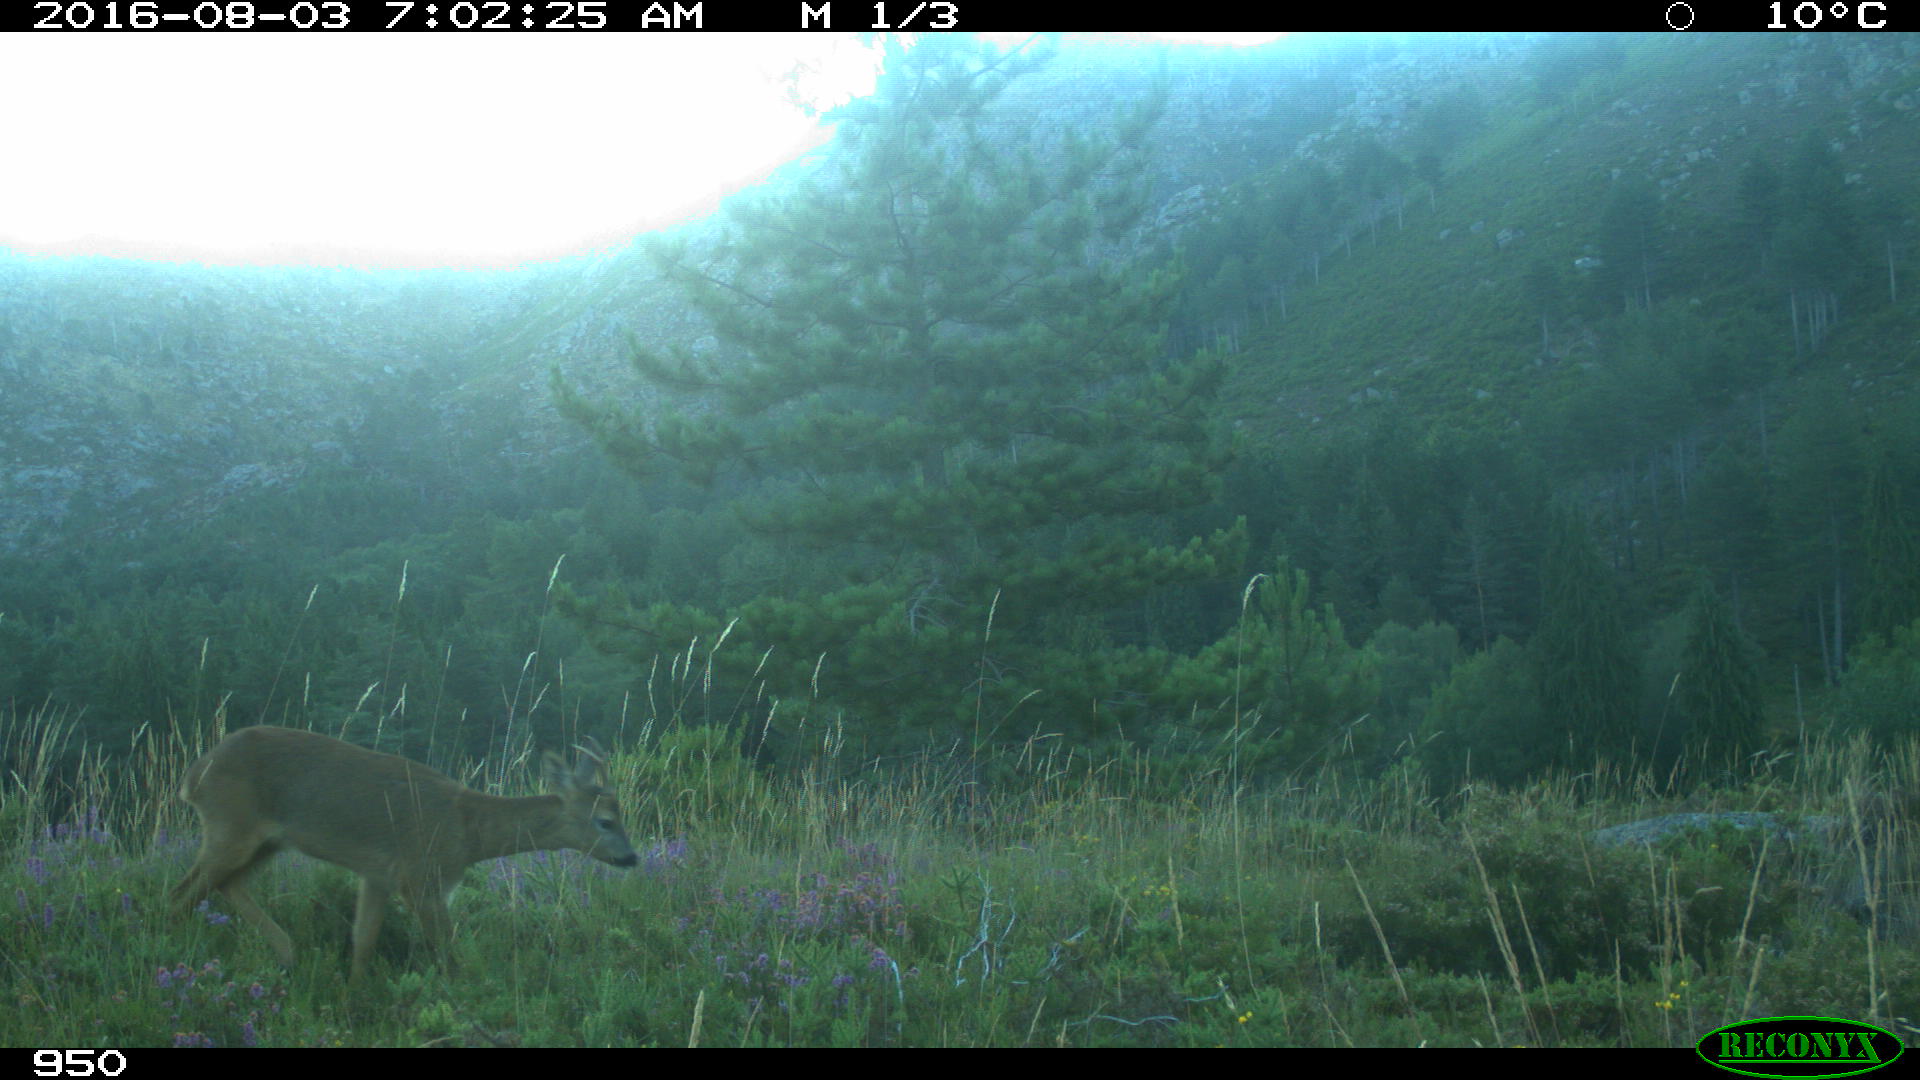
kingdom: Animalia
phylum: Chordata
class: Mammalia
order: Artiodactyla
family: Cervidae
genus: Capreolus
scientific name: Capreolus capreolus
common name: Western roe deer
